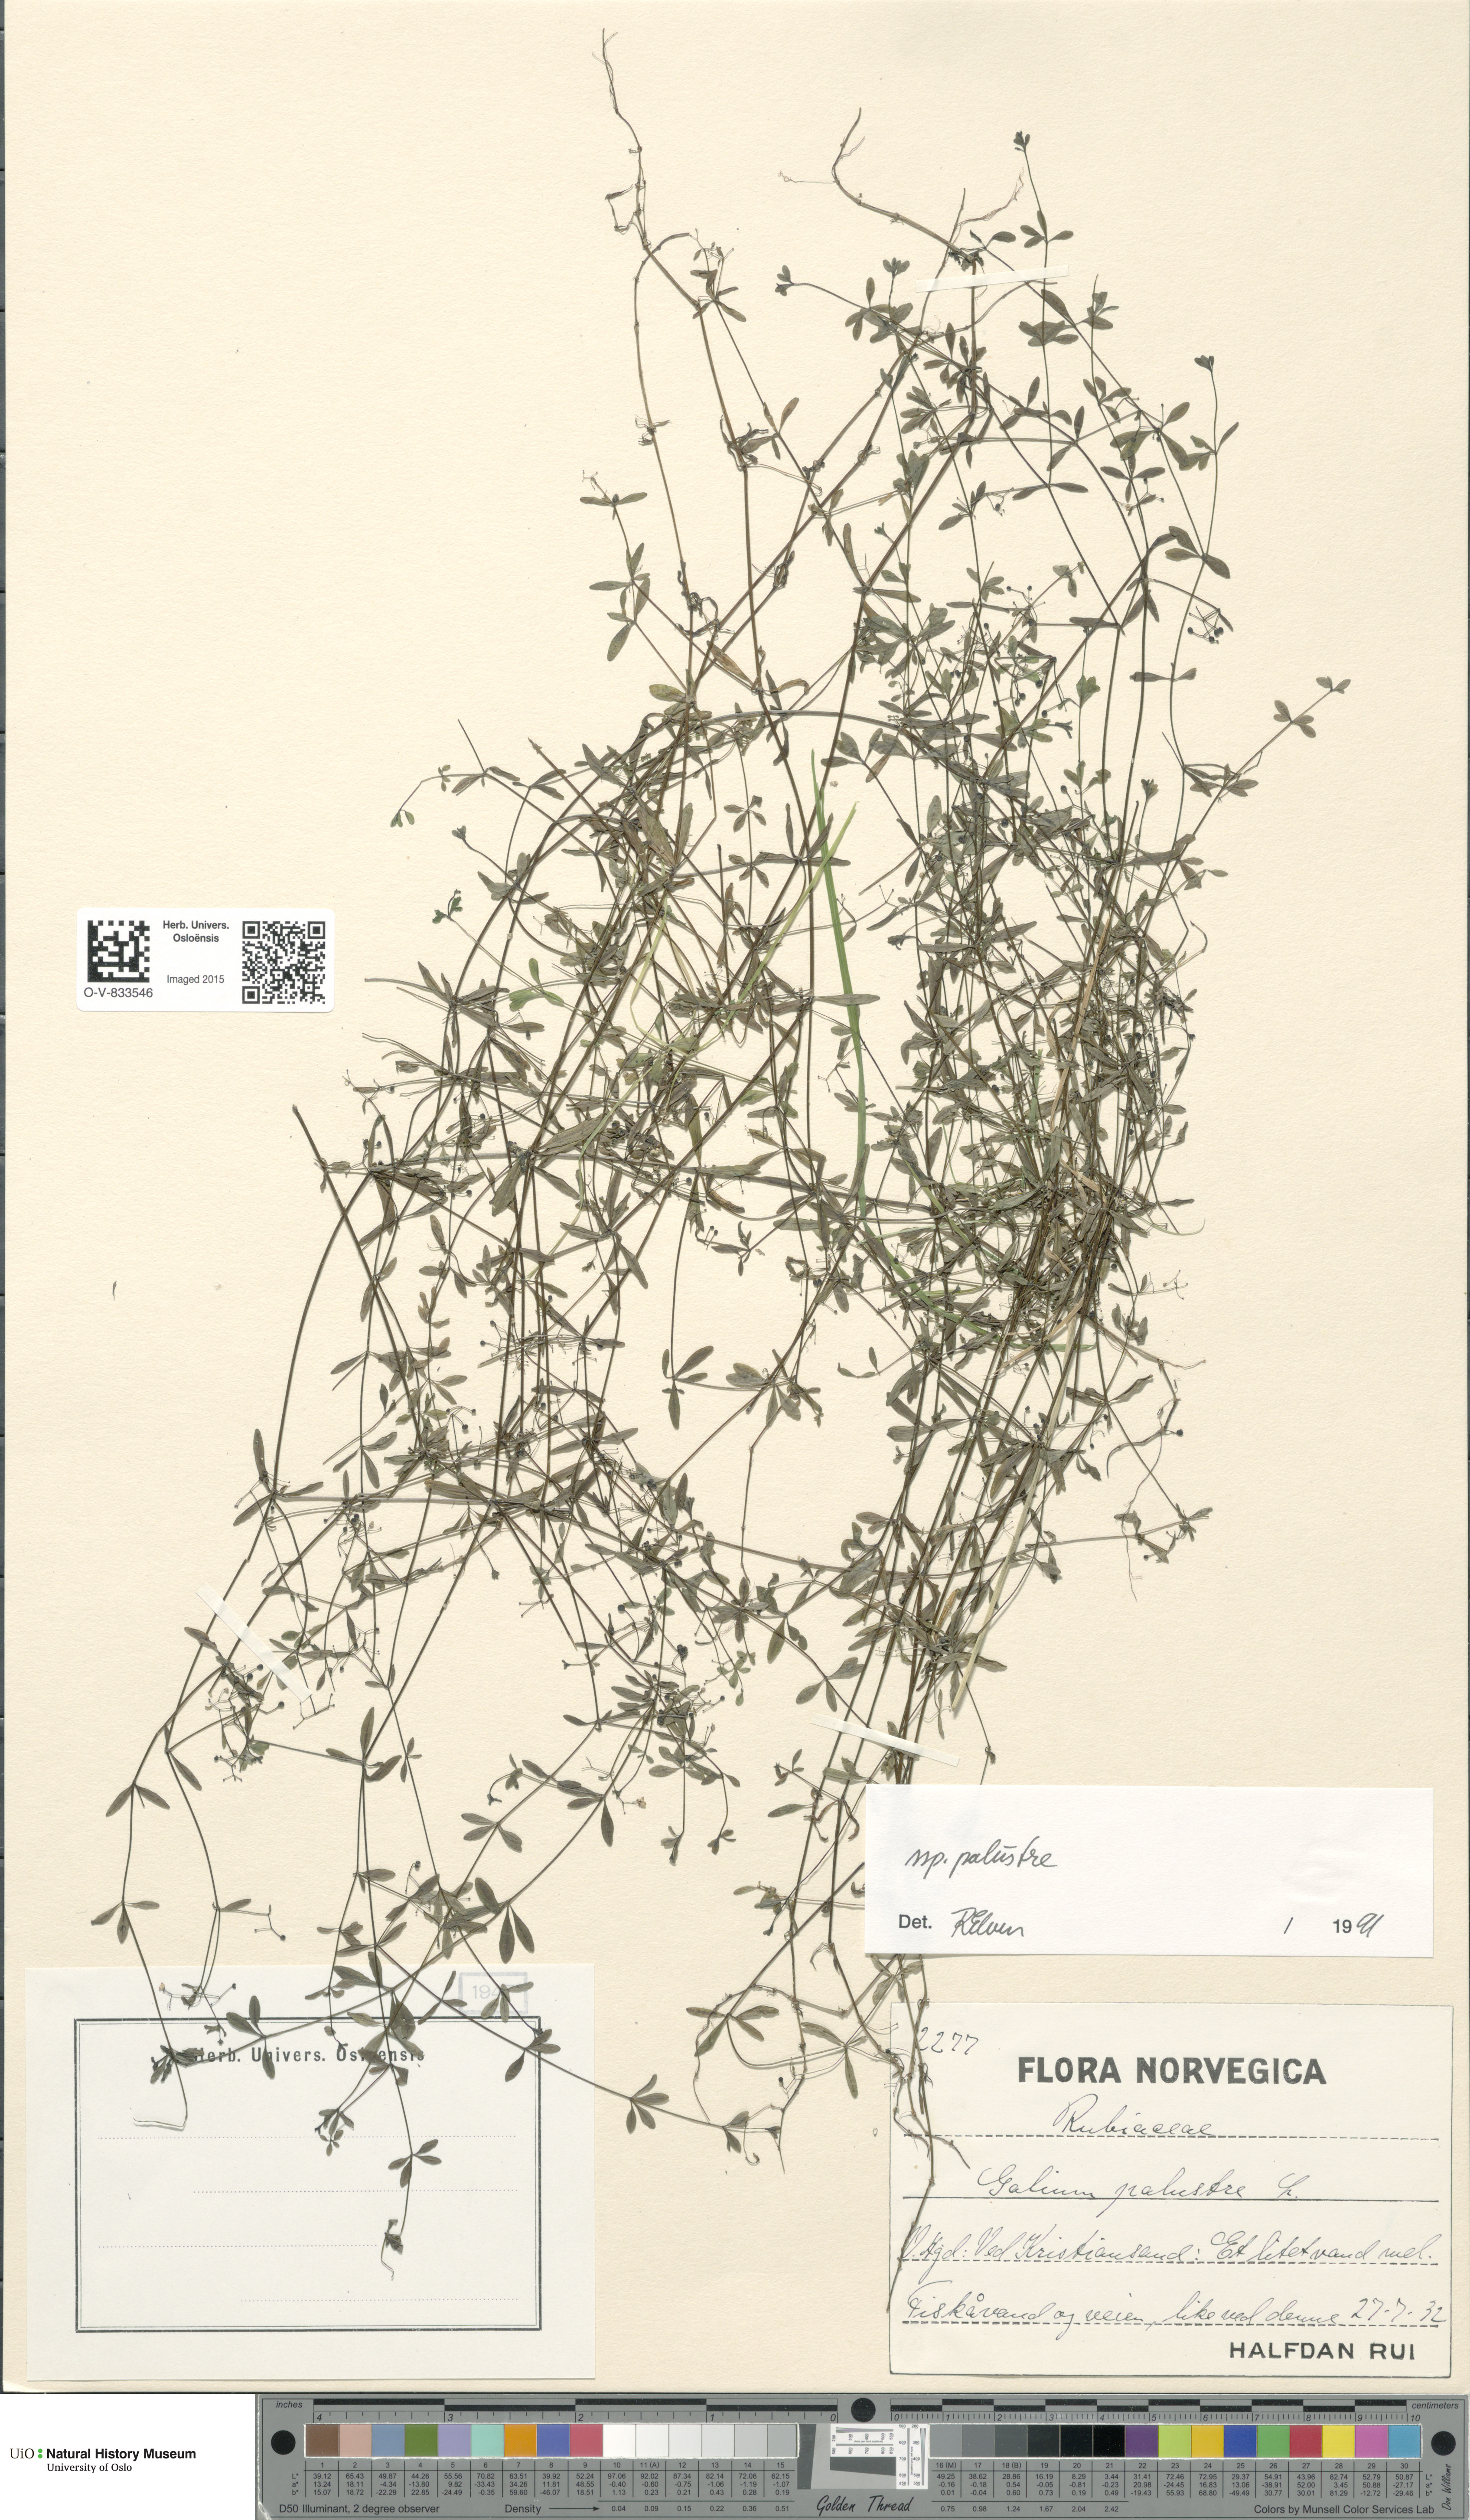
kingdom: Plantae
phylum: Tracheophyta
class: Magnoliopsida
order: Gentianales
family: Rubiaceae
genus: Galium
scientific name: Galium palustre
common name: Common marsh-bedstraw
